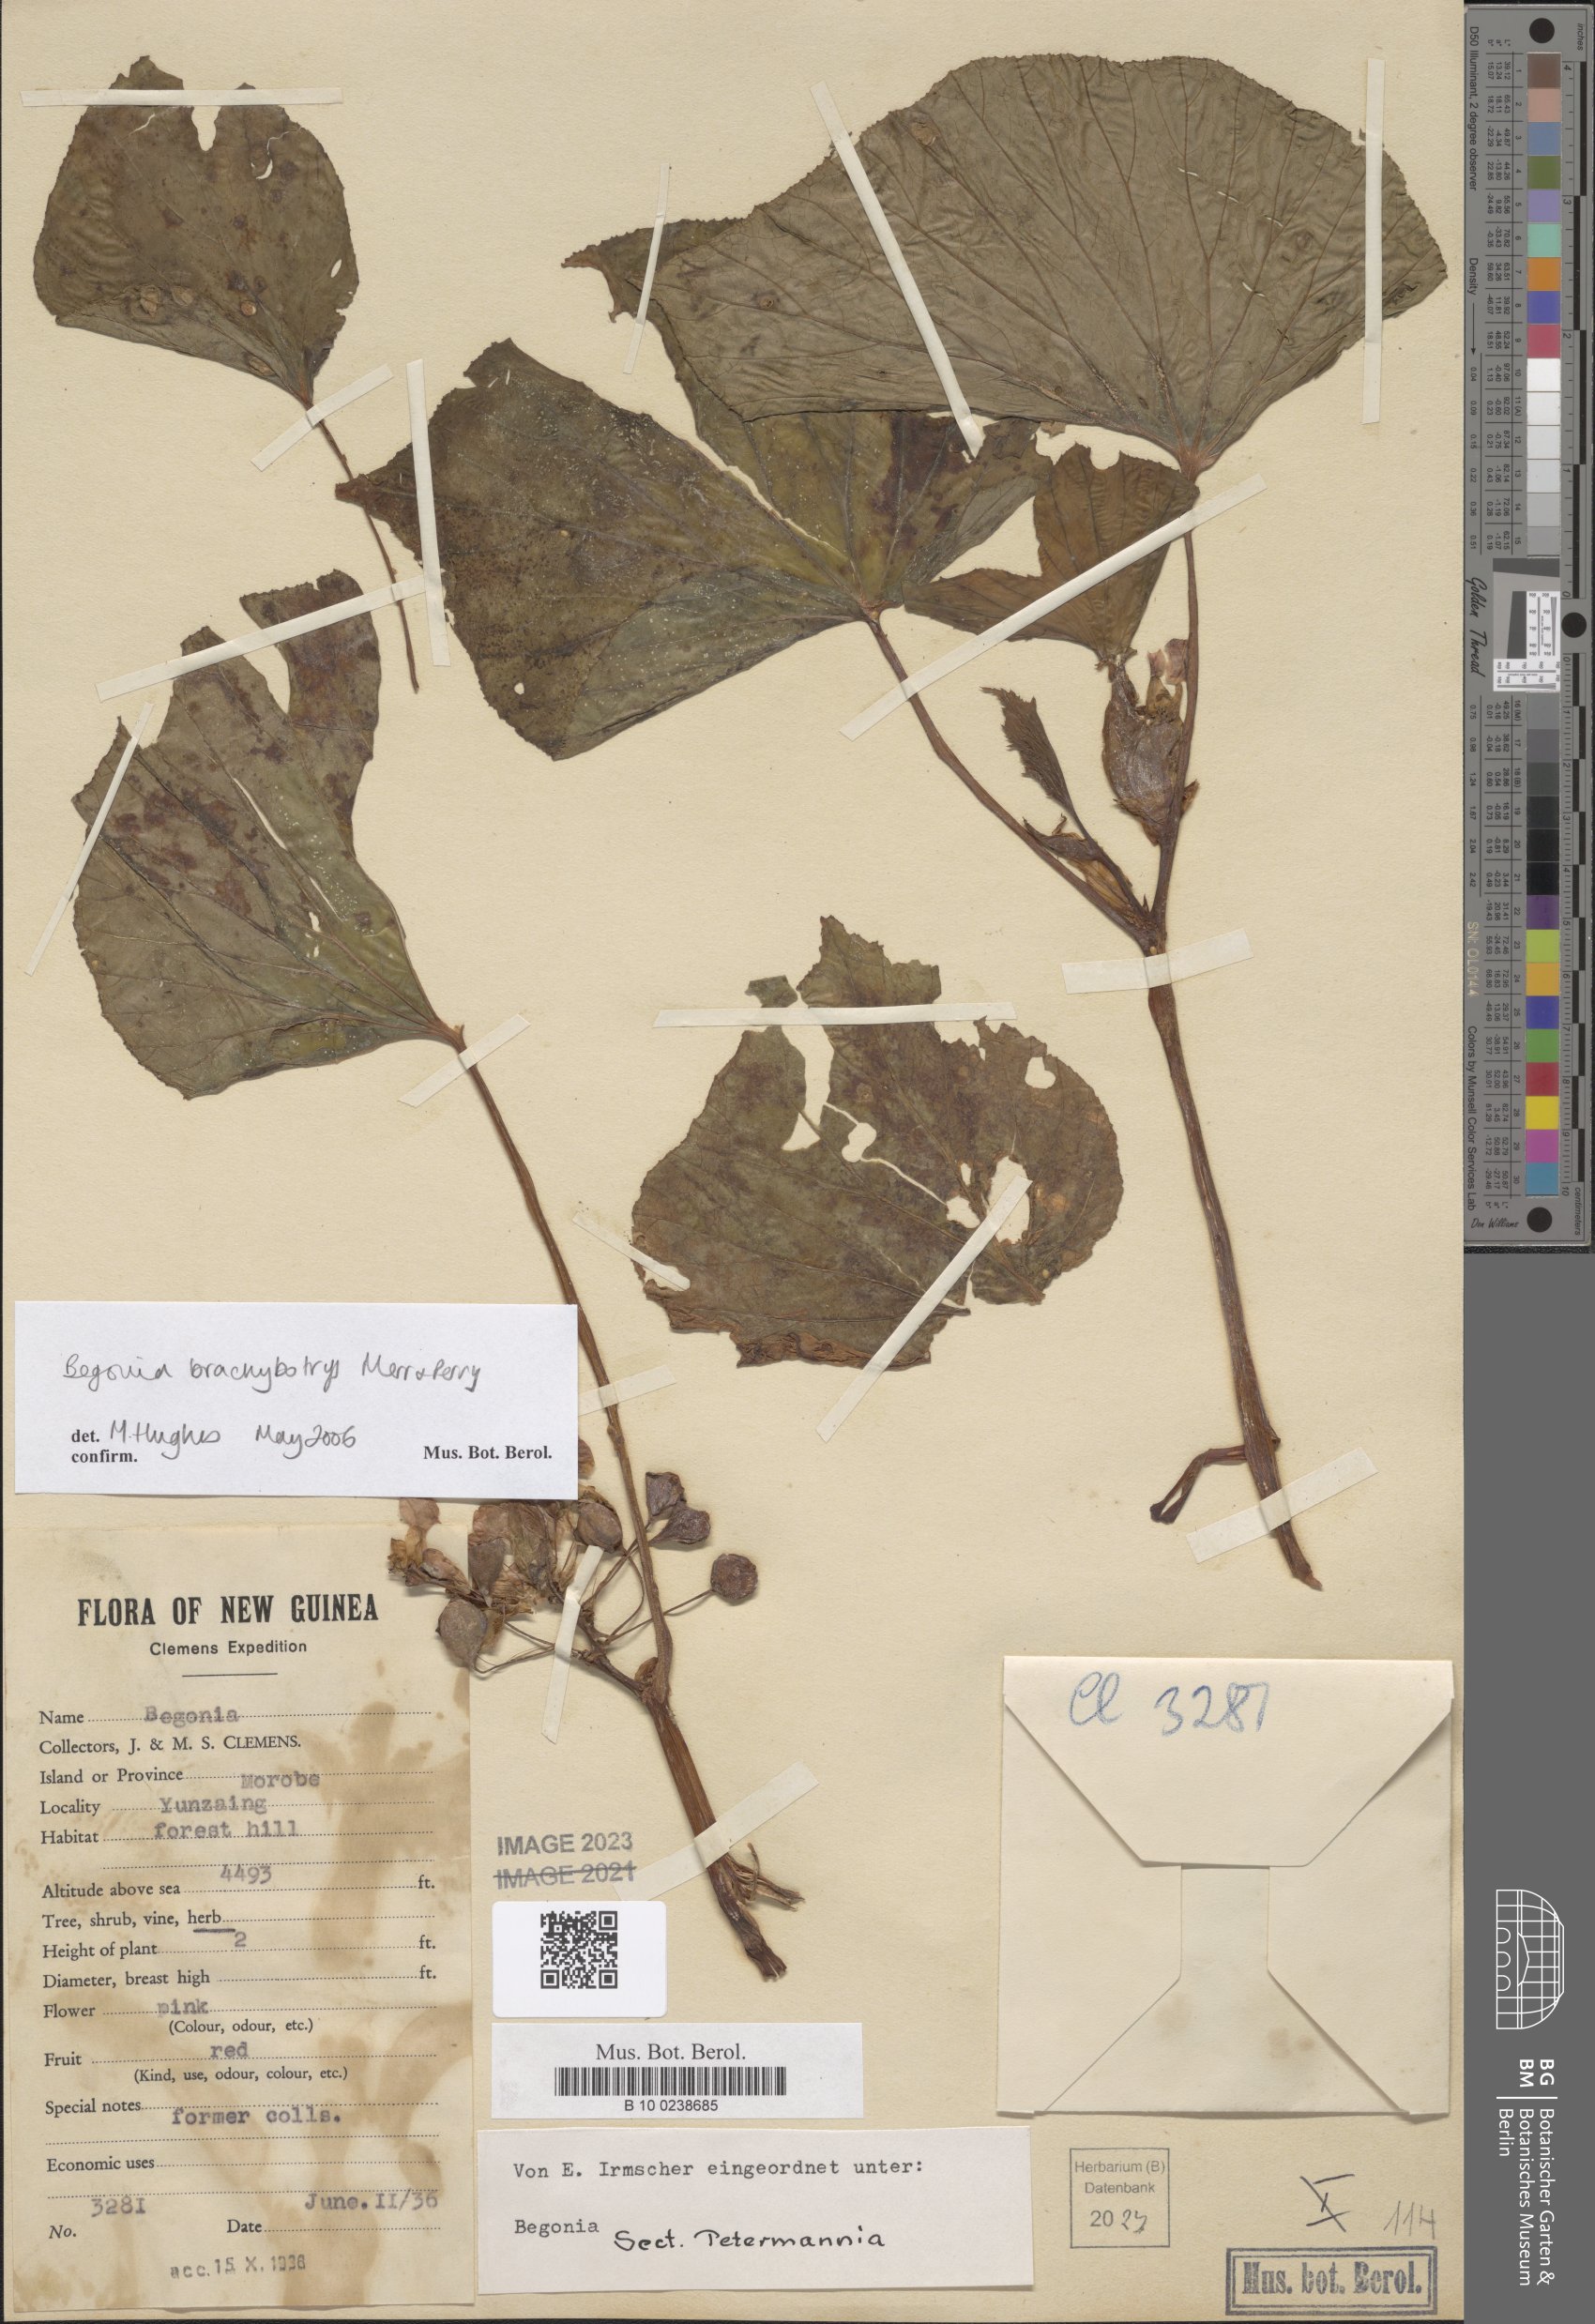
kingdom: Plantae
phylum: Tracheophyta
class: Magnoliopsida
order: Cucurbitales
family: Begoniaceae
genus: Begonia
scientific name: Begonia brachybotrys
